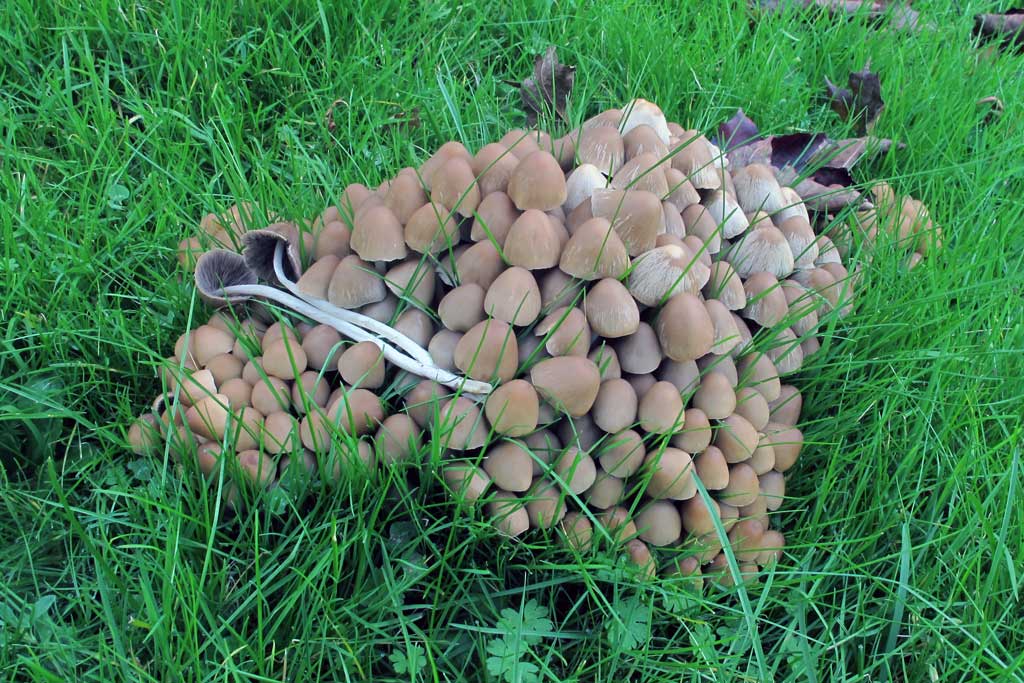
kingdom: Fungi
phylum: Basidiomycota
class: Agaricomycetes
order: Agaricales
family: Psathyrellaceae
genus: Britzelmayria
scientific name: Britzelmayria multipedata
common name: knippe-mørkhat
